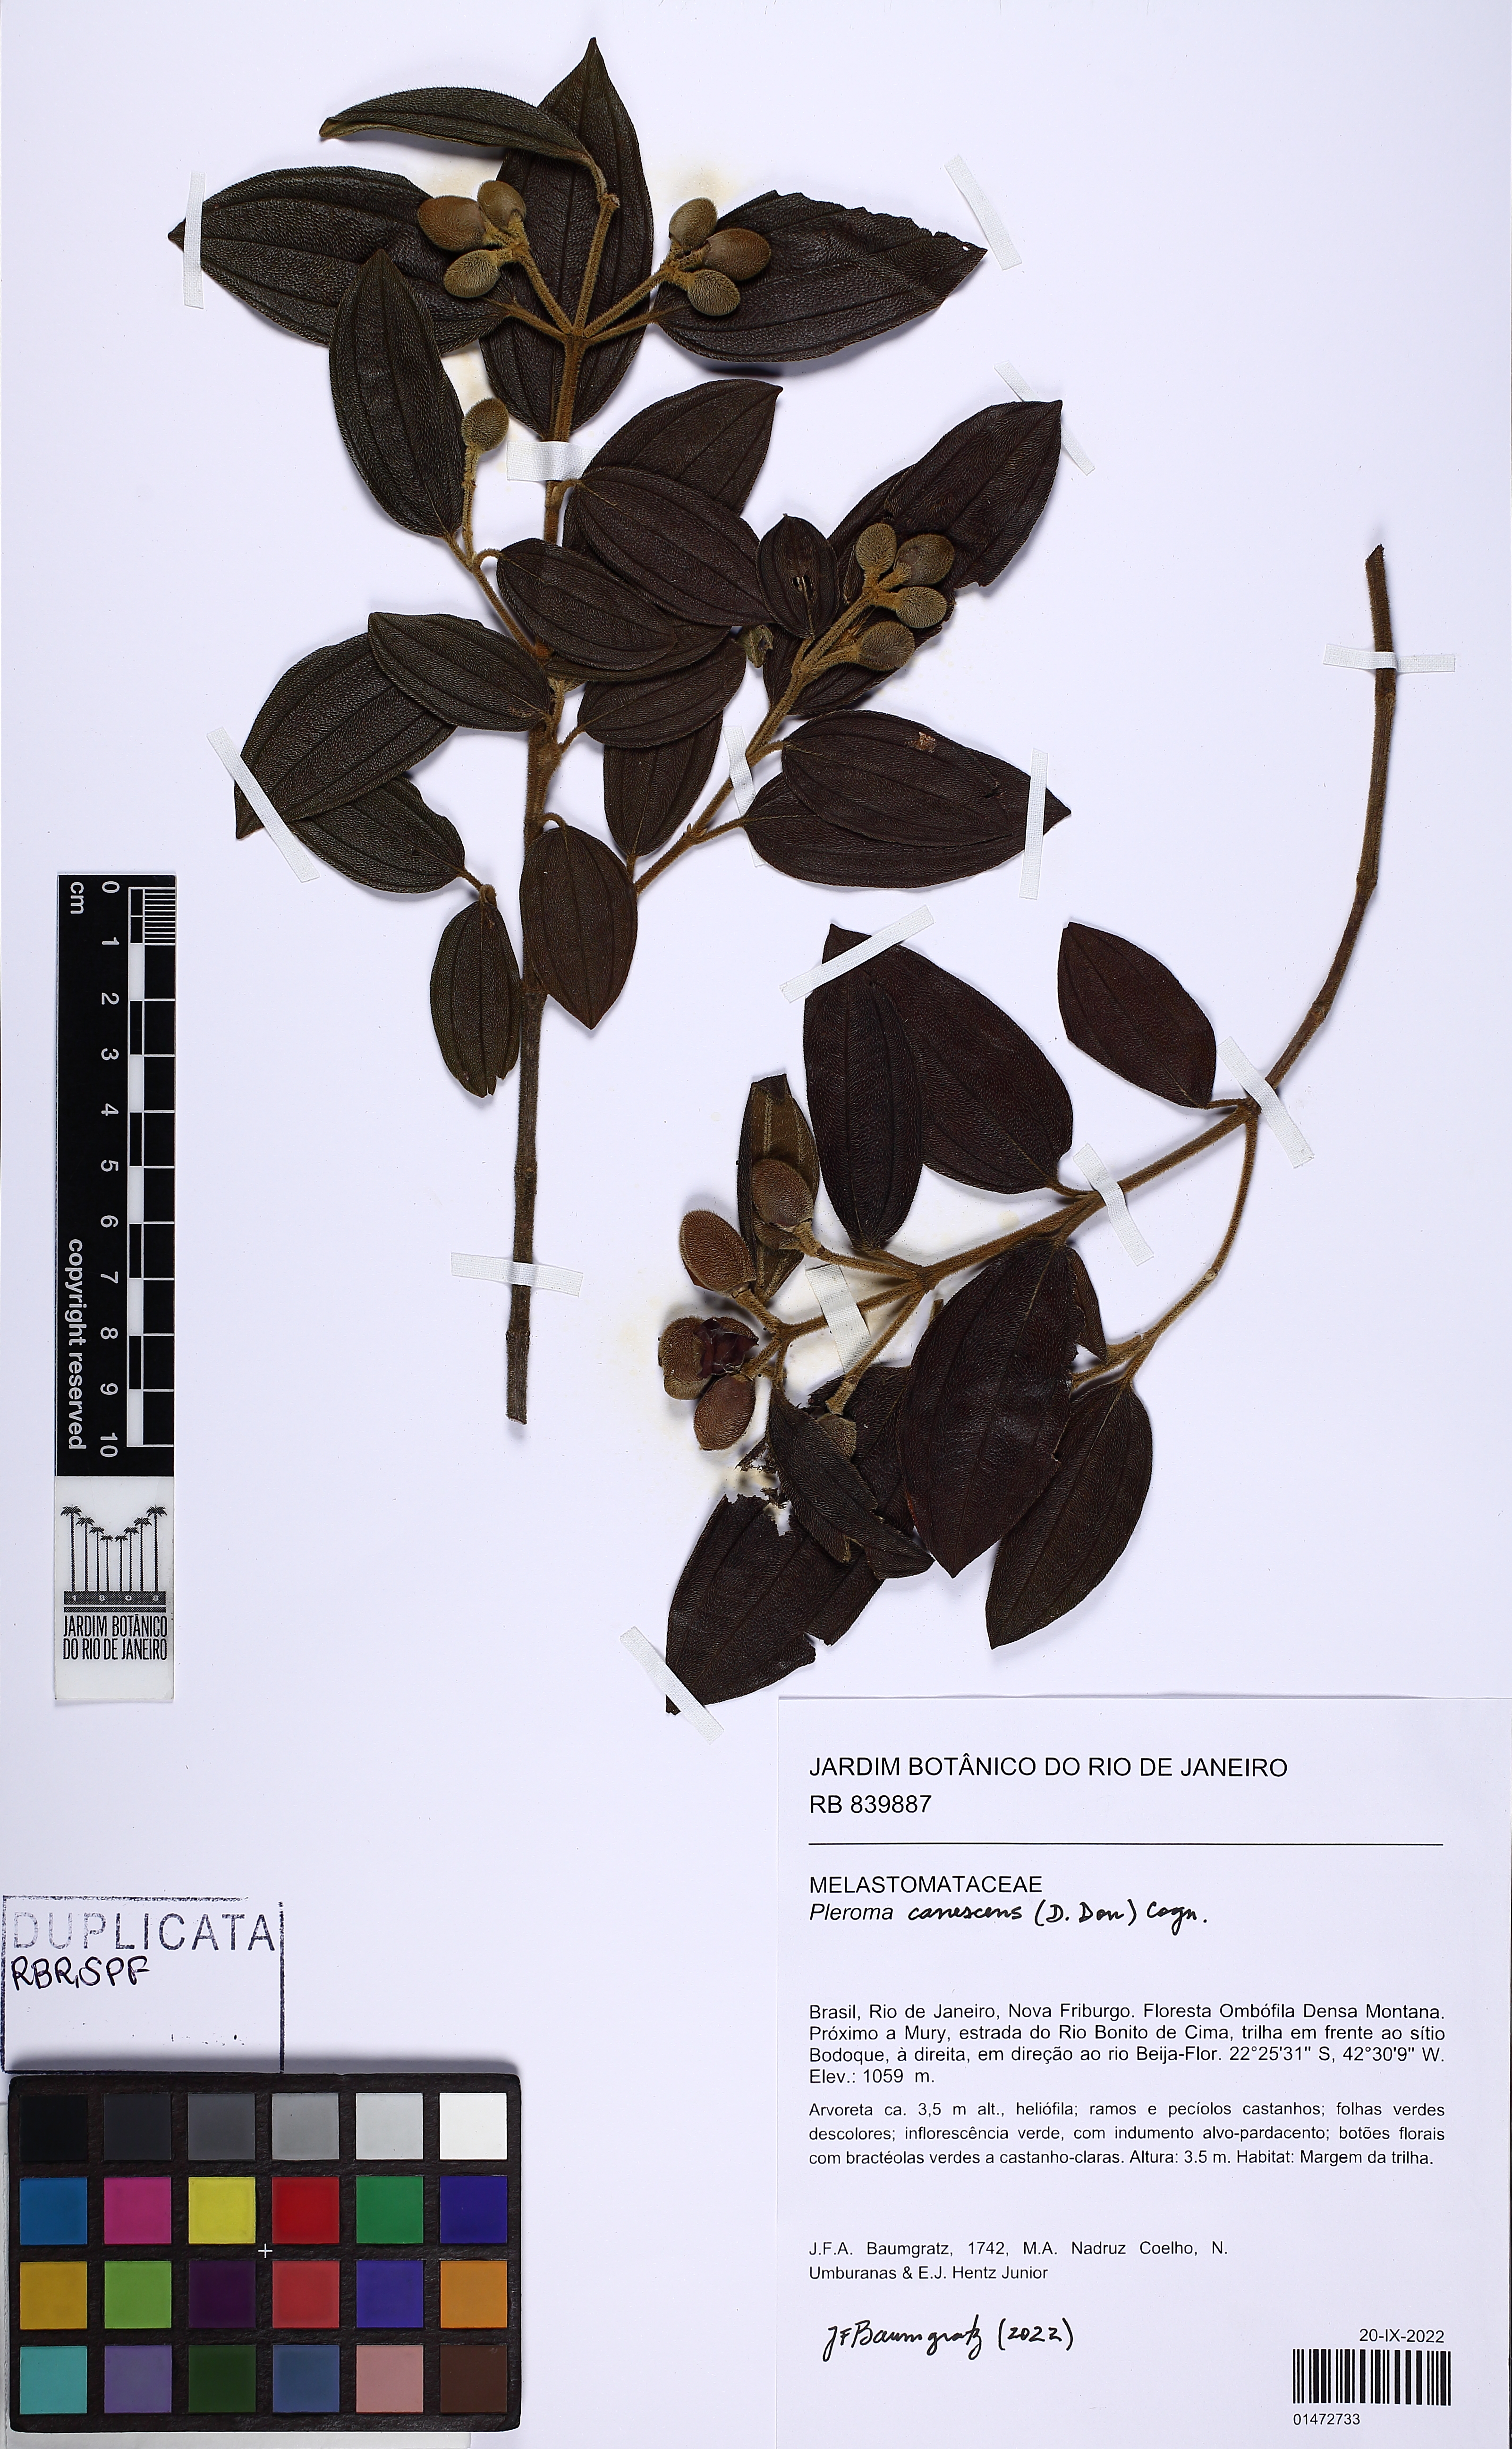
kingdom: Plantae
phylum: Tracheophyta
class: Magnoliopsida
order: Myrtales
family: Melastomataceae
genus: Pleroma
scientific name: Pleroma canescens
